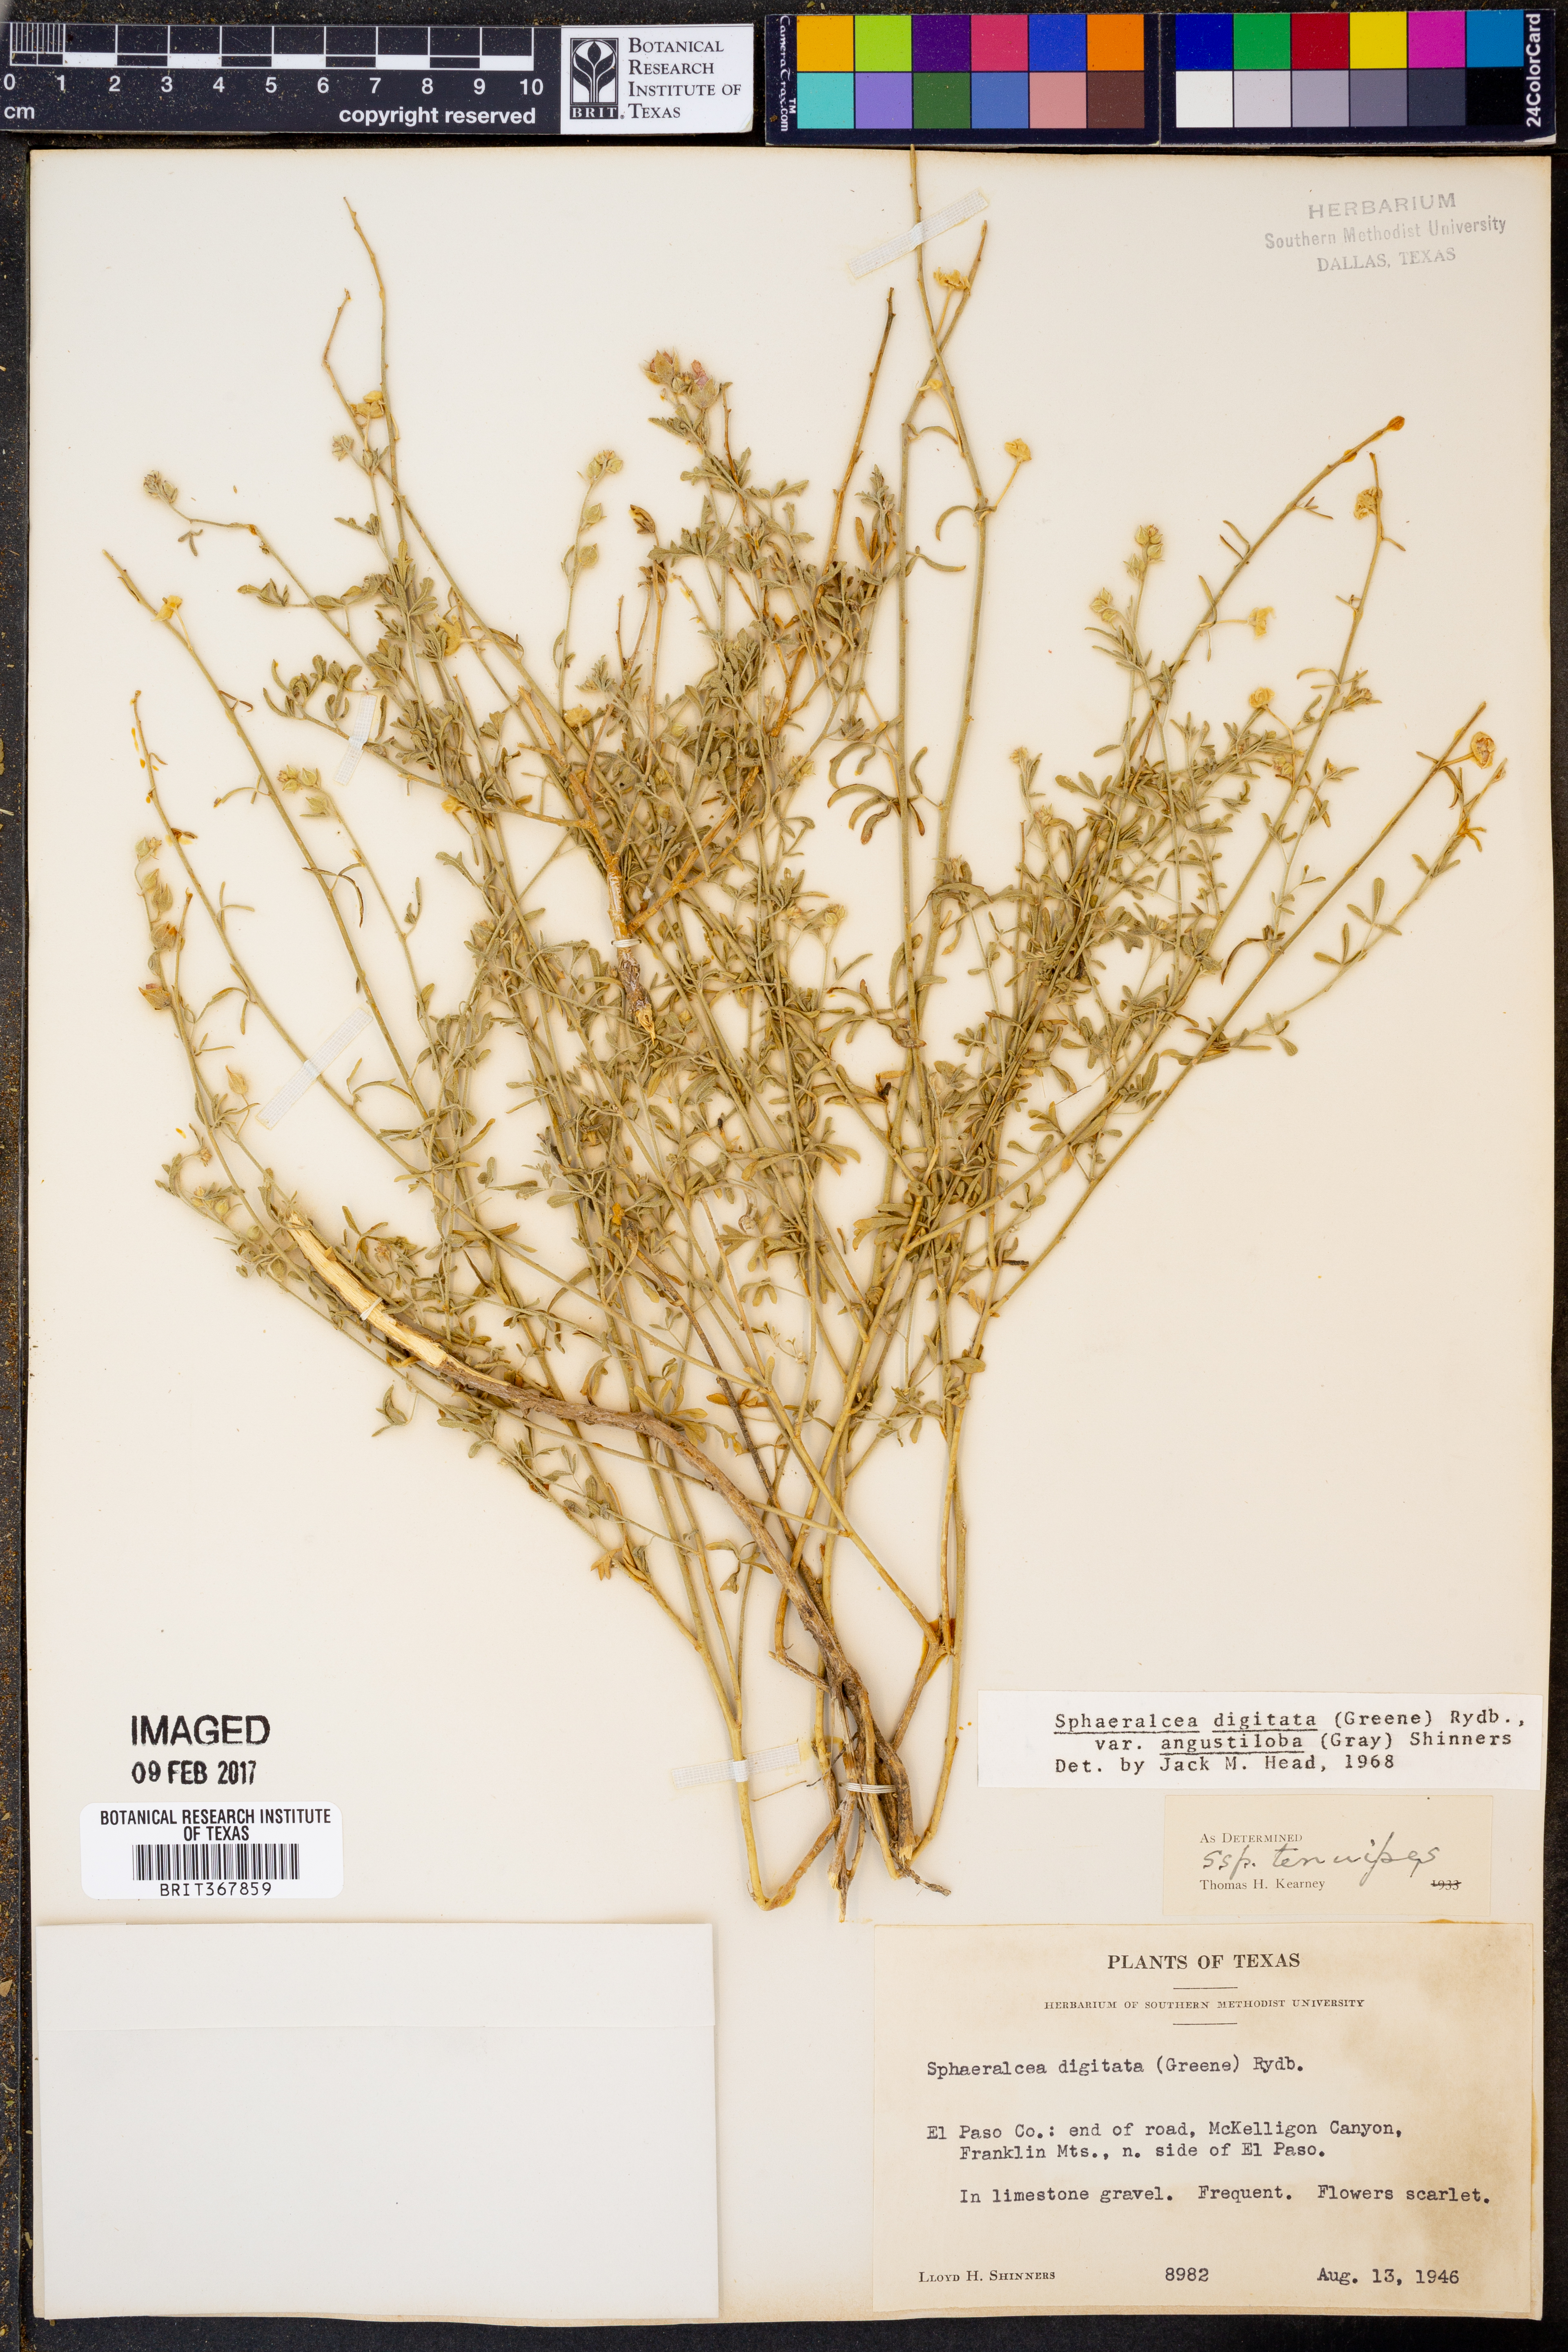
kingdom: Plantae
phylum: Tracheophyta
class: Magnoliopsida
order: Malvales
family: Malvaceae
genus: Sphaeralcea
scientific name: Sphaeralcea digitata
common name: Juniper-gobe-mallow
